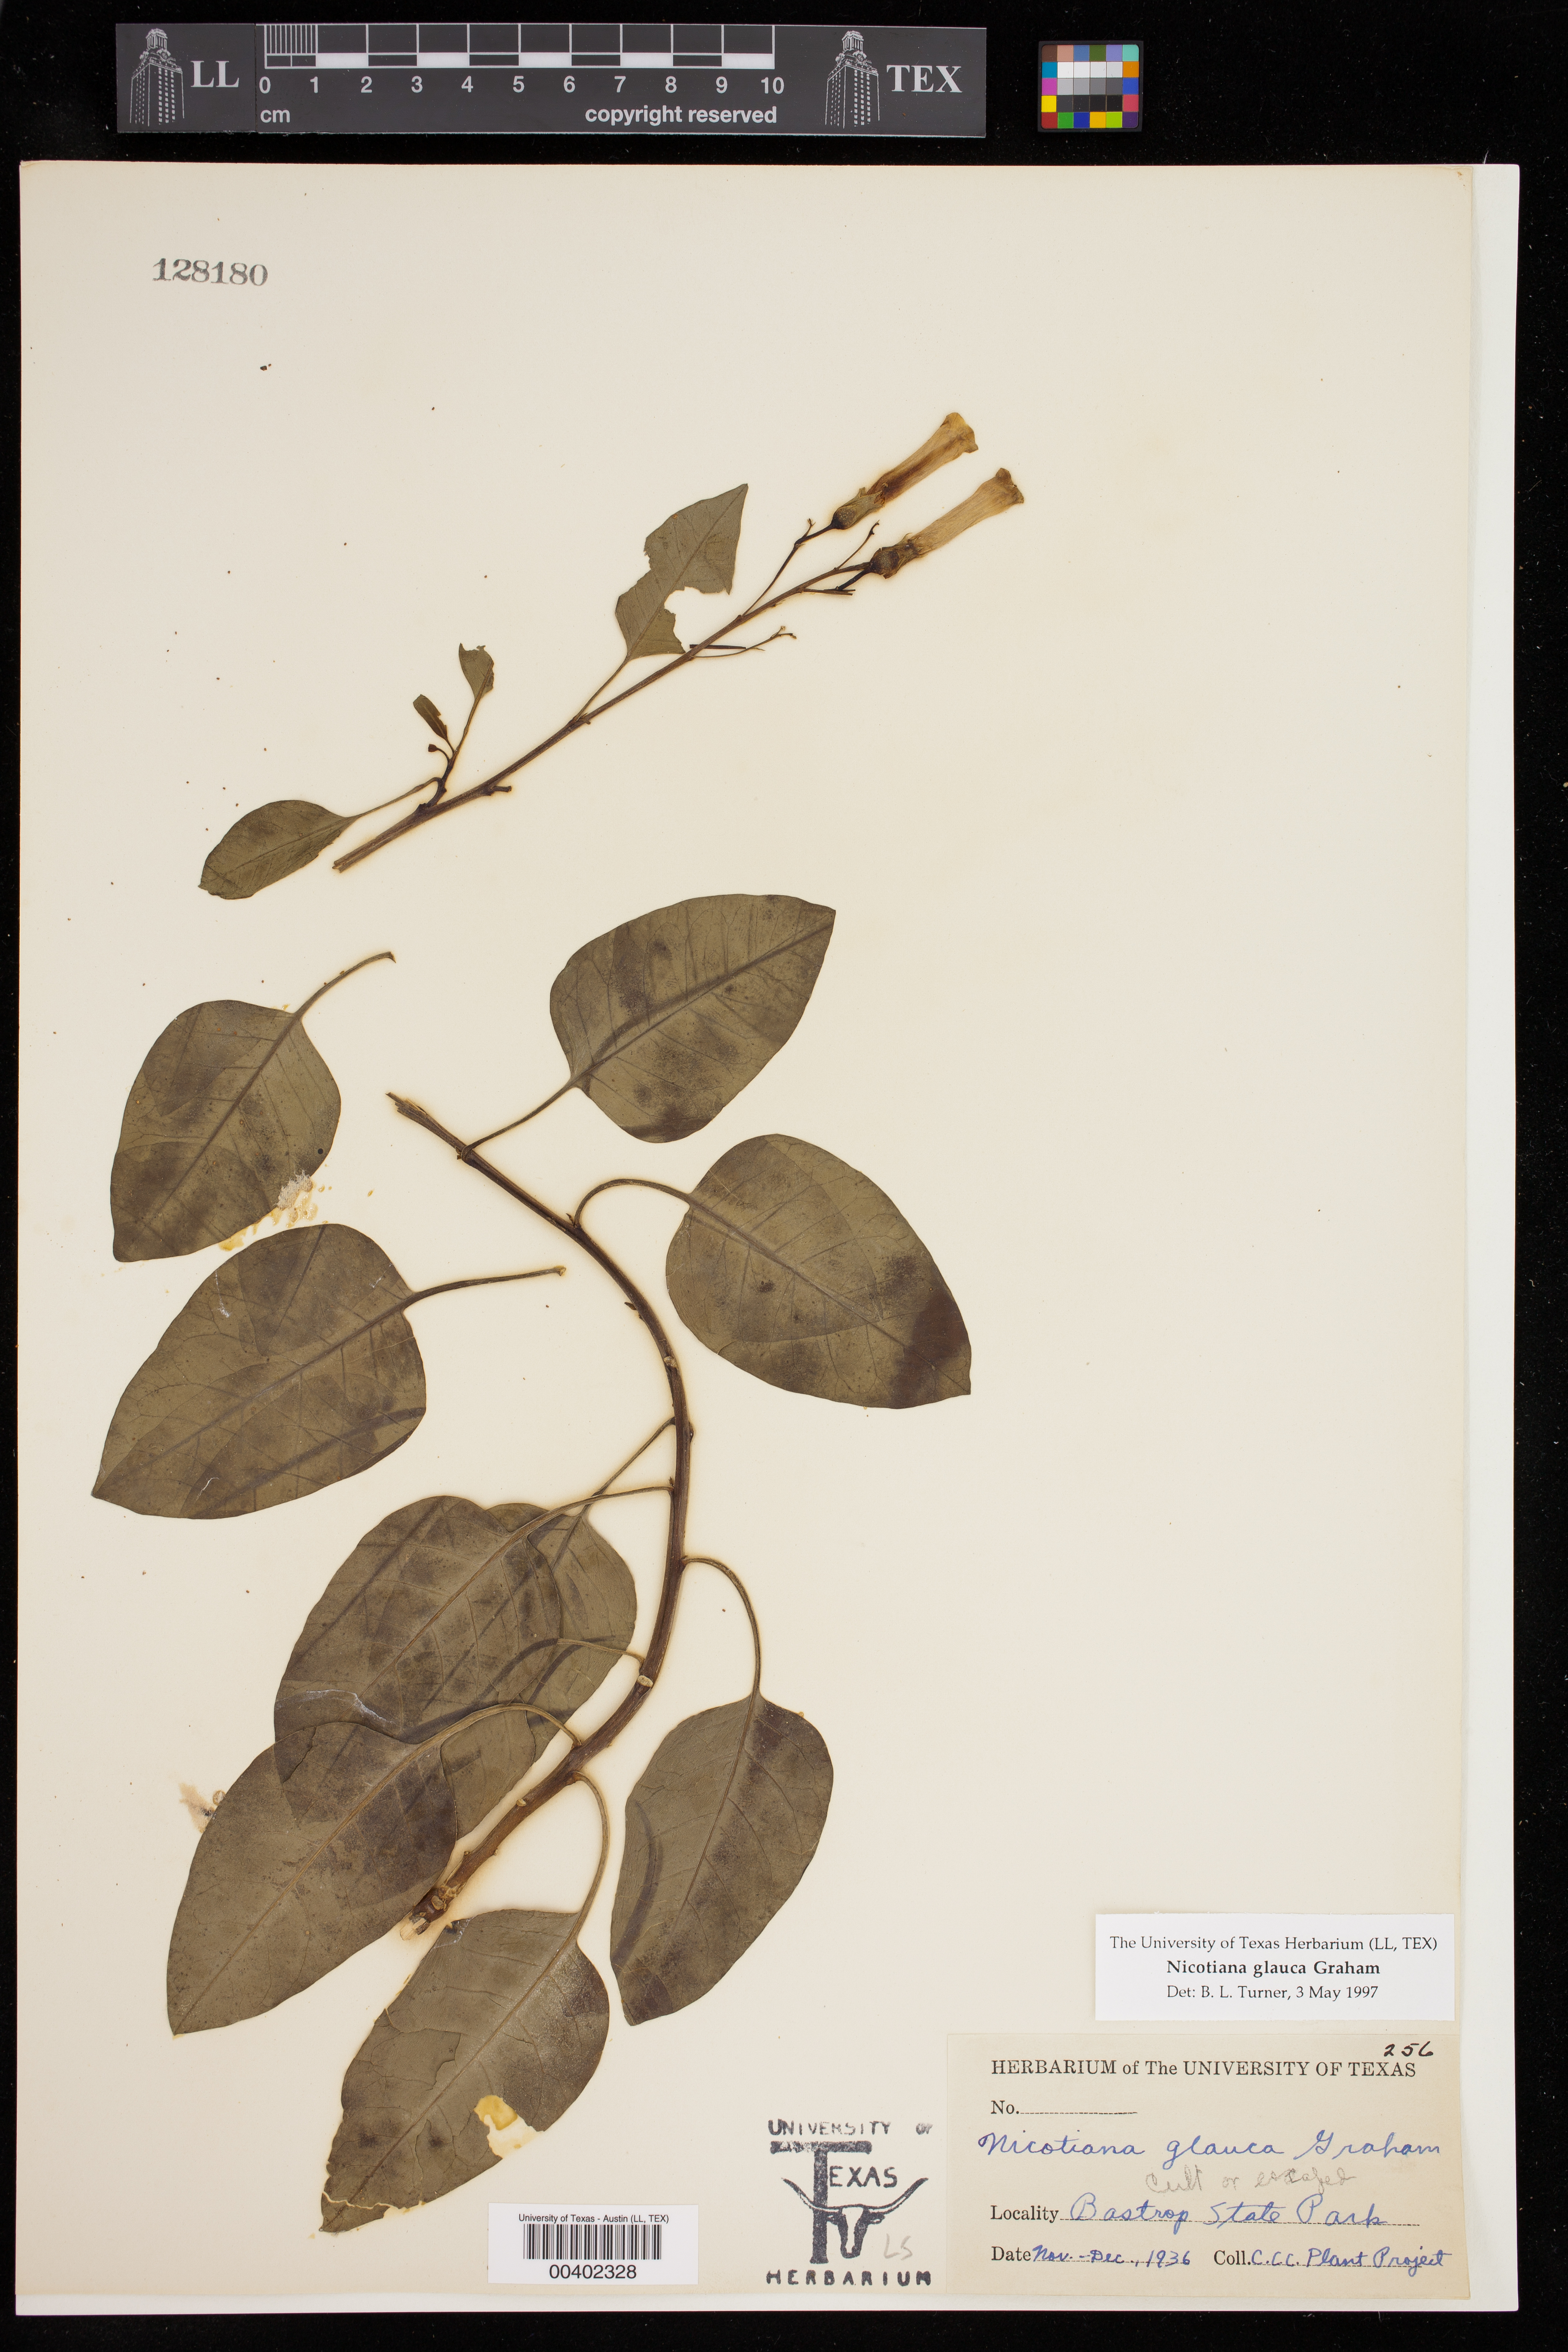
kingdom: Plantae
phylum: Tracheophyta
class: Magnoliopsida
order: Solanales
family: Solanaceae
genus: Nicotiana
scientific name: Nicotiana glauca
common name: Tree tobacco
